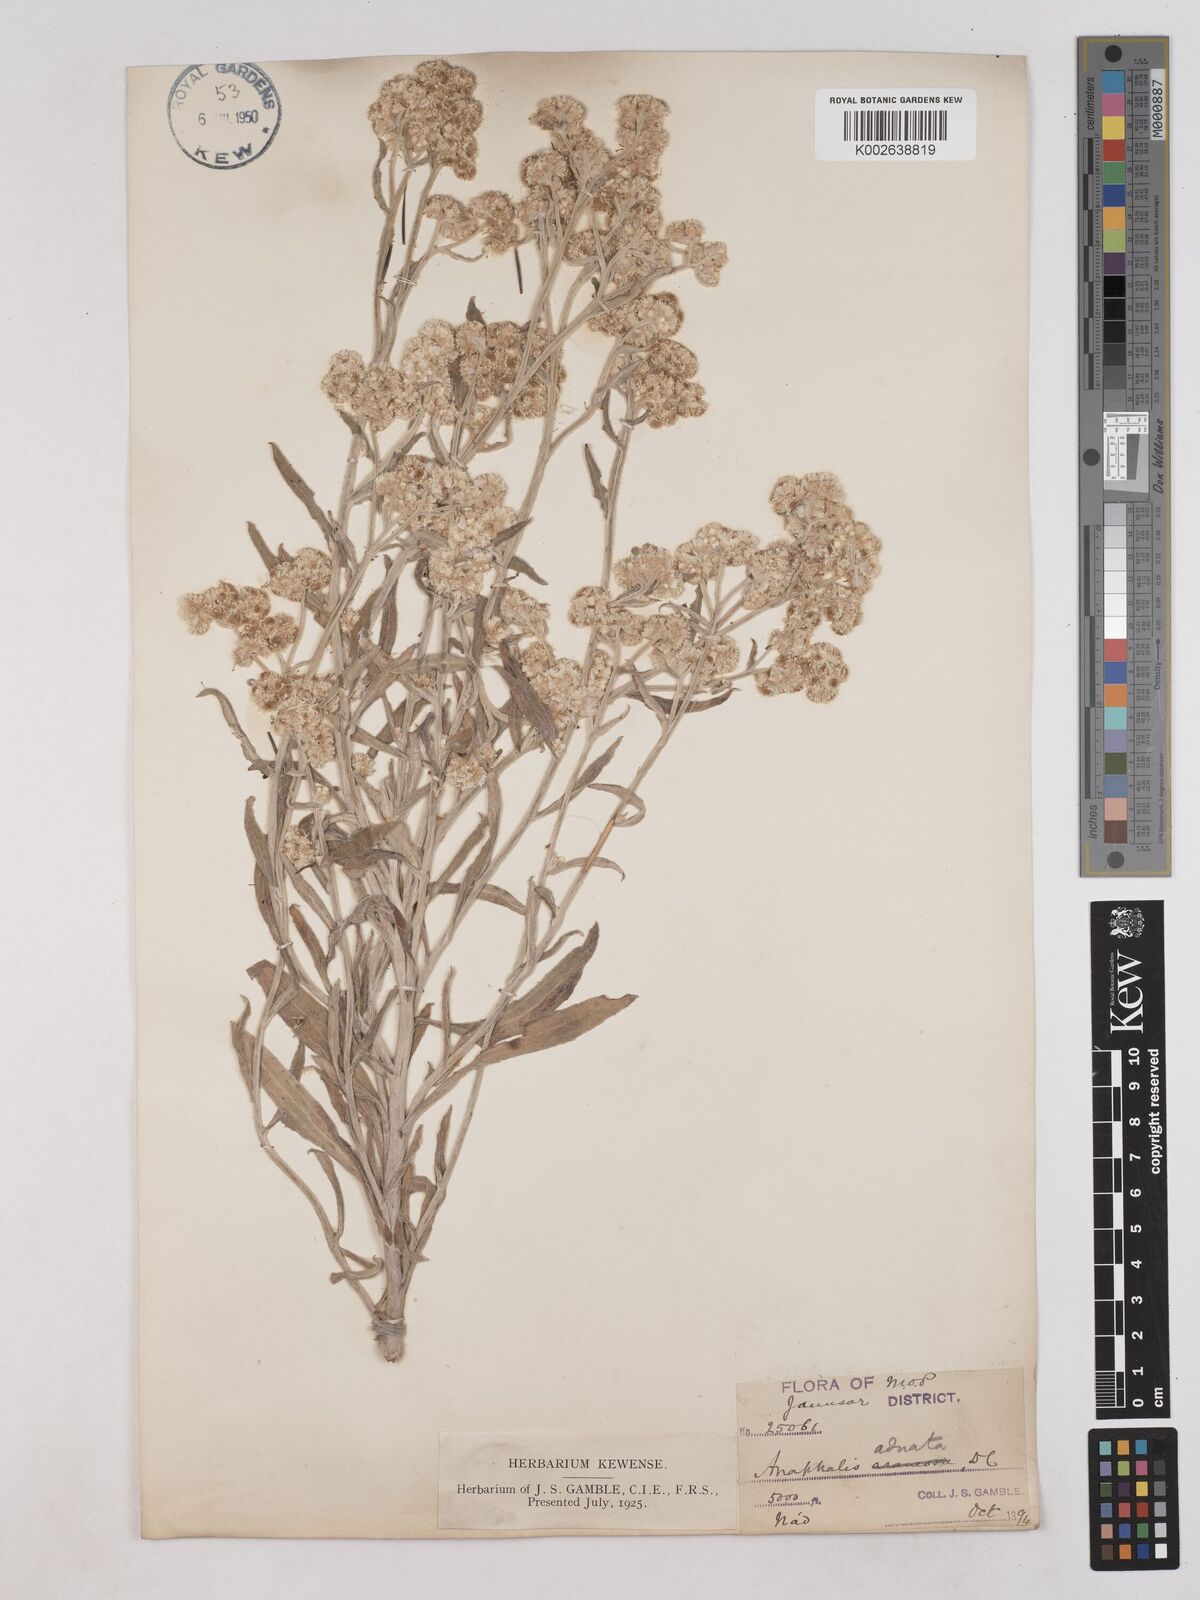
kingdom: Plantae
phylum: Tracheophyta
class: Magnoliopsida
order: Asterales
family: Asteraceae
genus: Pseudognaphalium
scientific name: Pseudognaphalium adnatum
